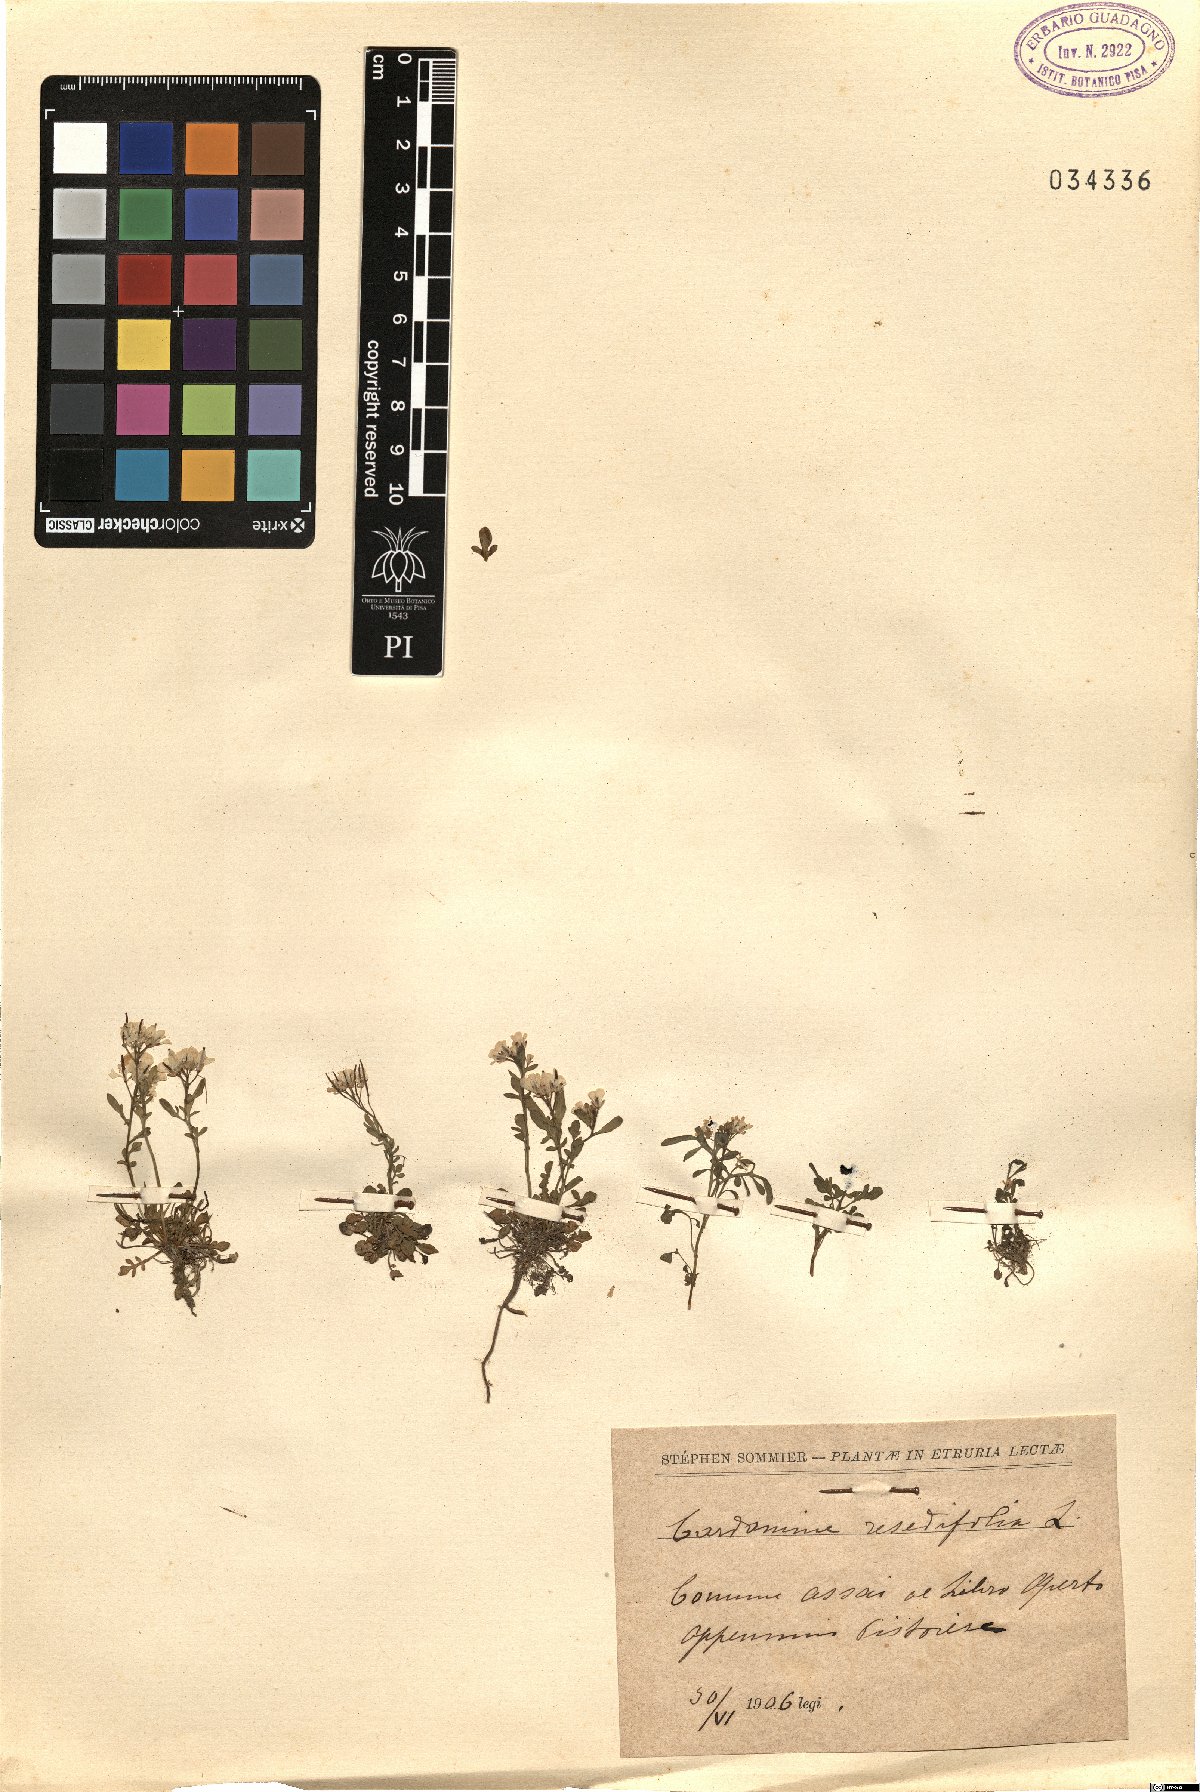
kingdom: Plantae
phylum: Tracheophyta
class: Magnoliopsida
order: Brassicales
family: Brassicaceae
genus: Cardamine
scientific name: Cardamine resedifolia
